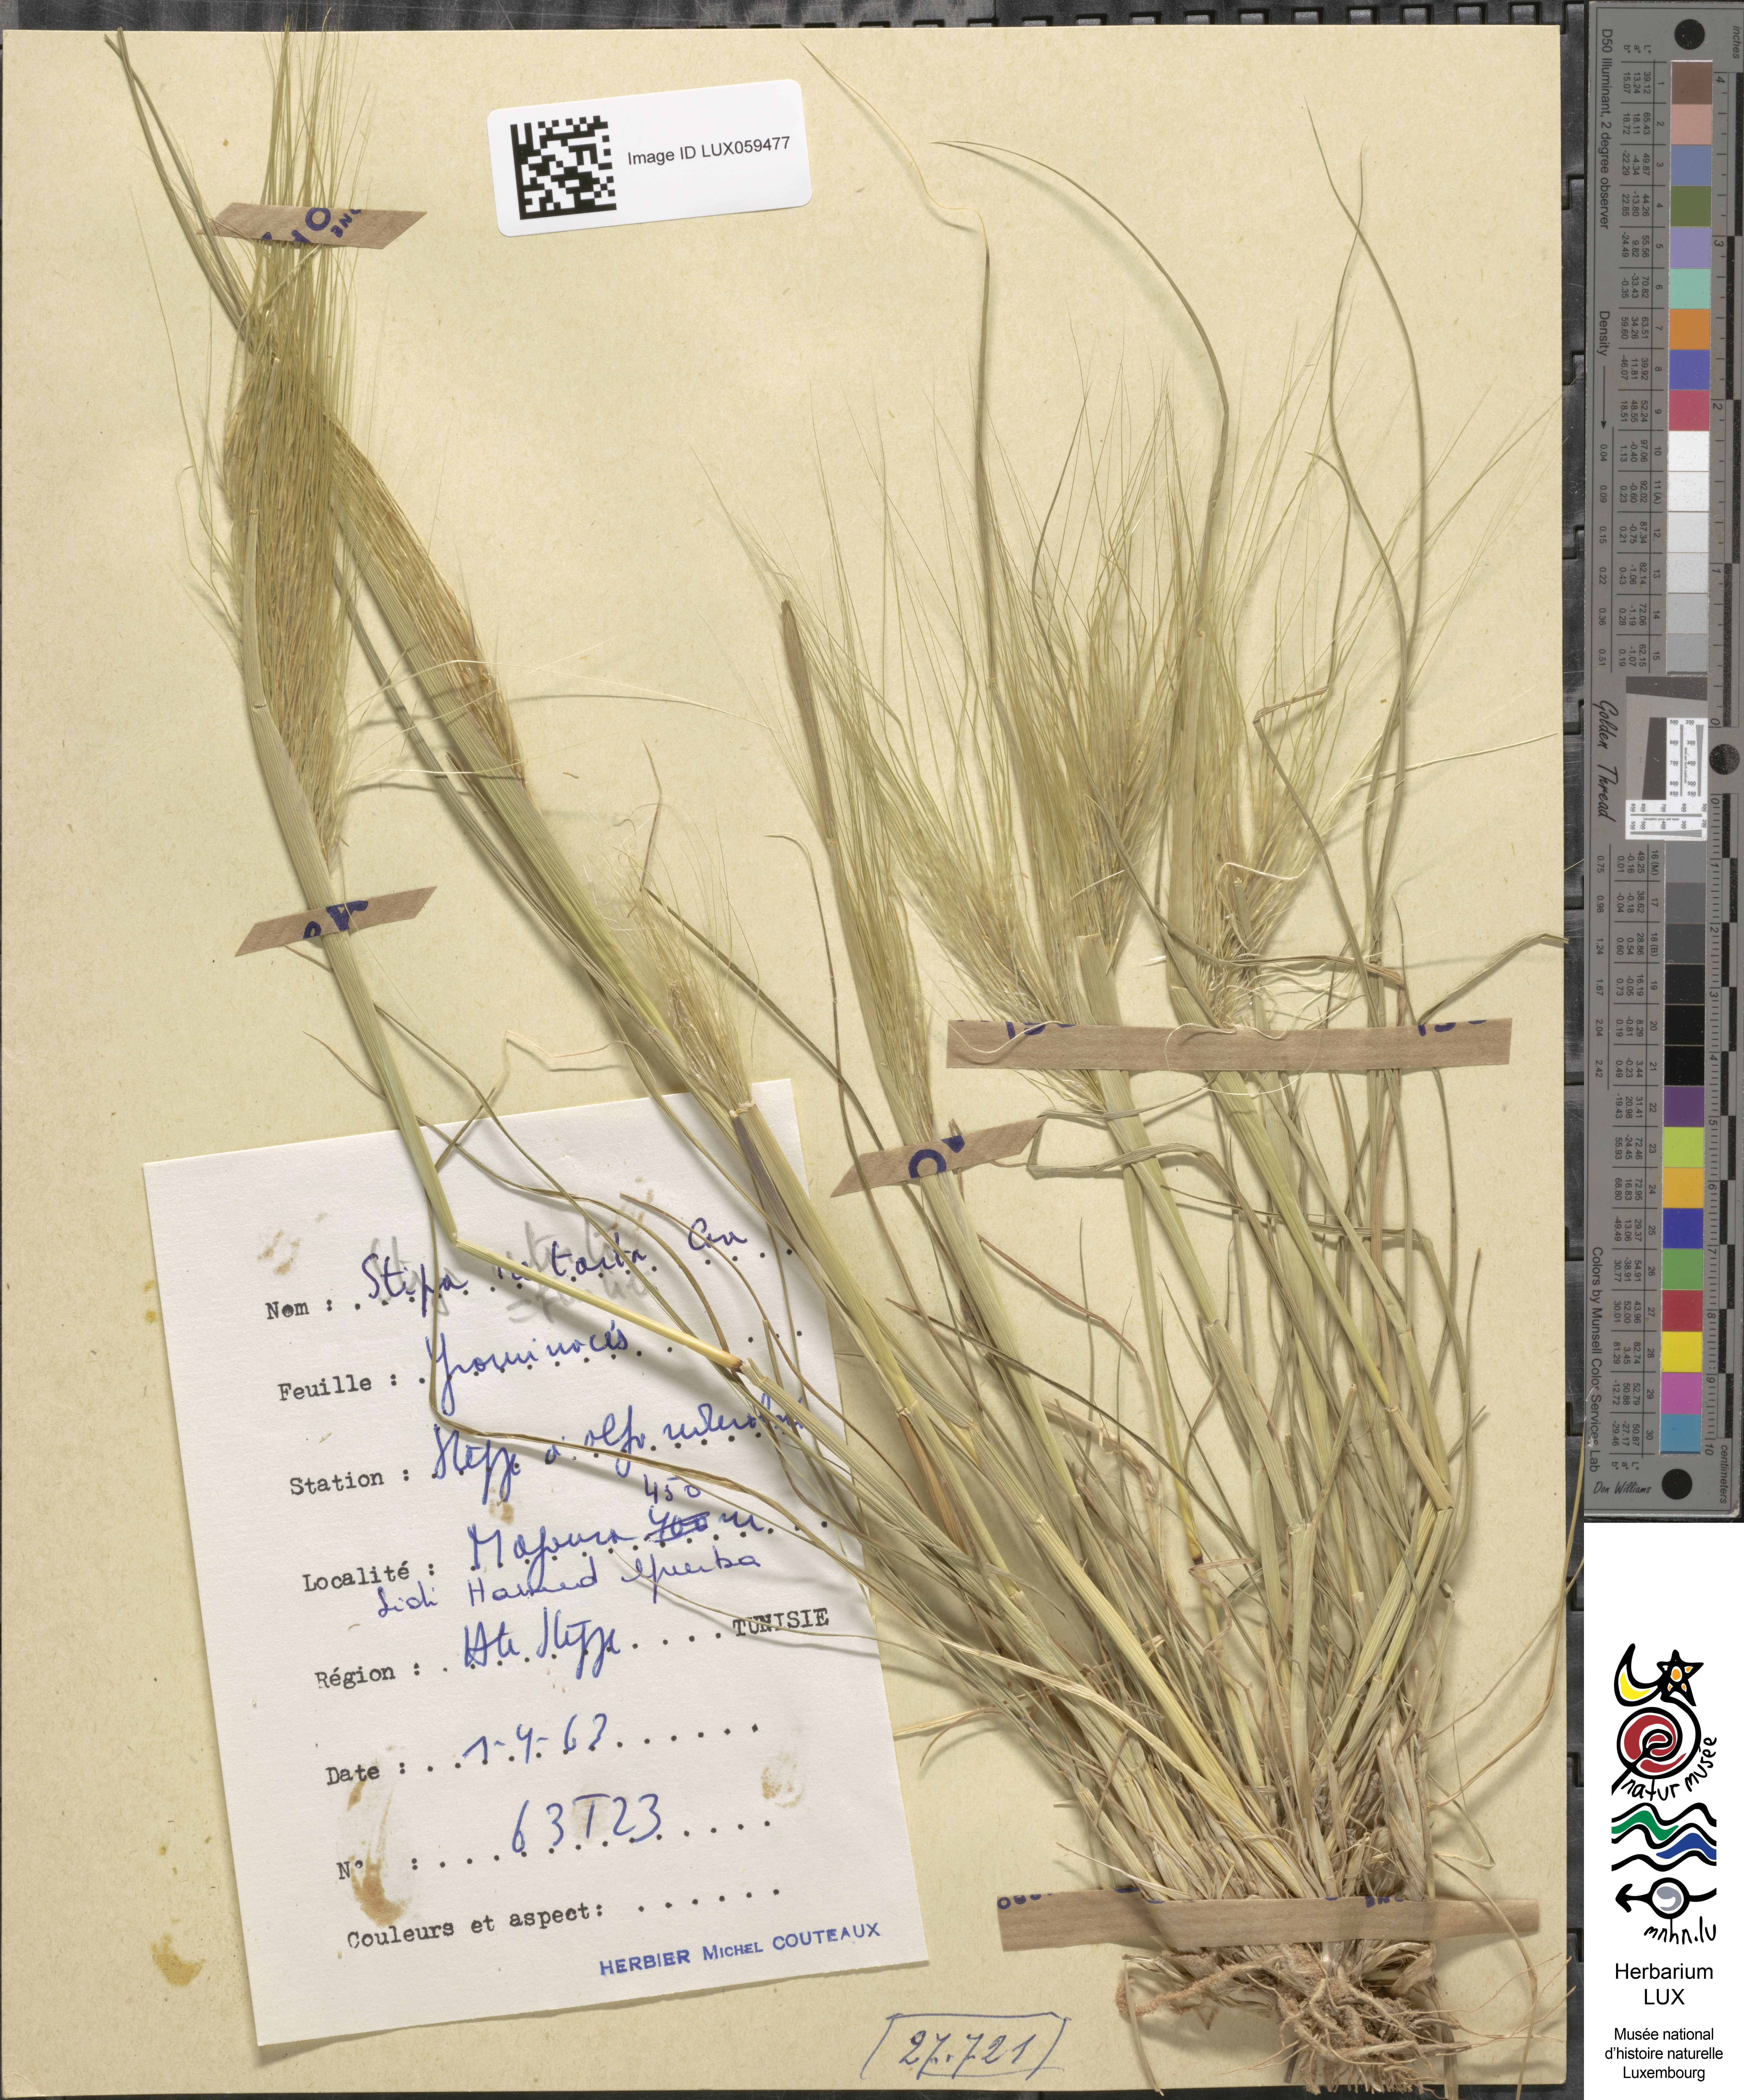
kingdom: Plantae
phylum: Tracheophyta
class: Liliopsida
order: Poales
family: Poaceae
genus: Stipellula
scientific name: Stipellula capensis
